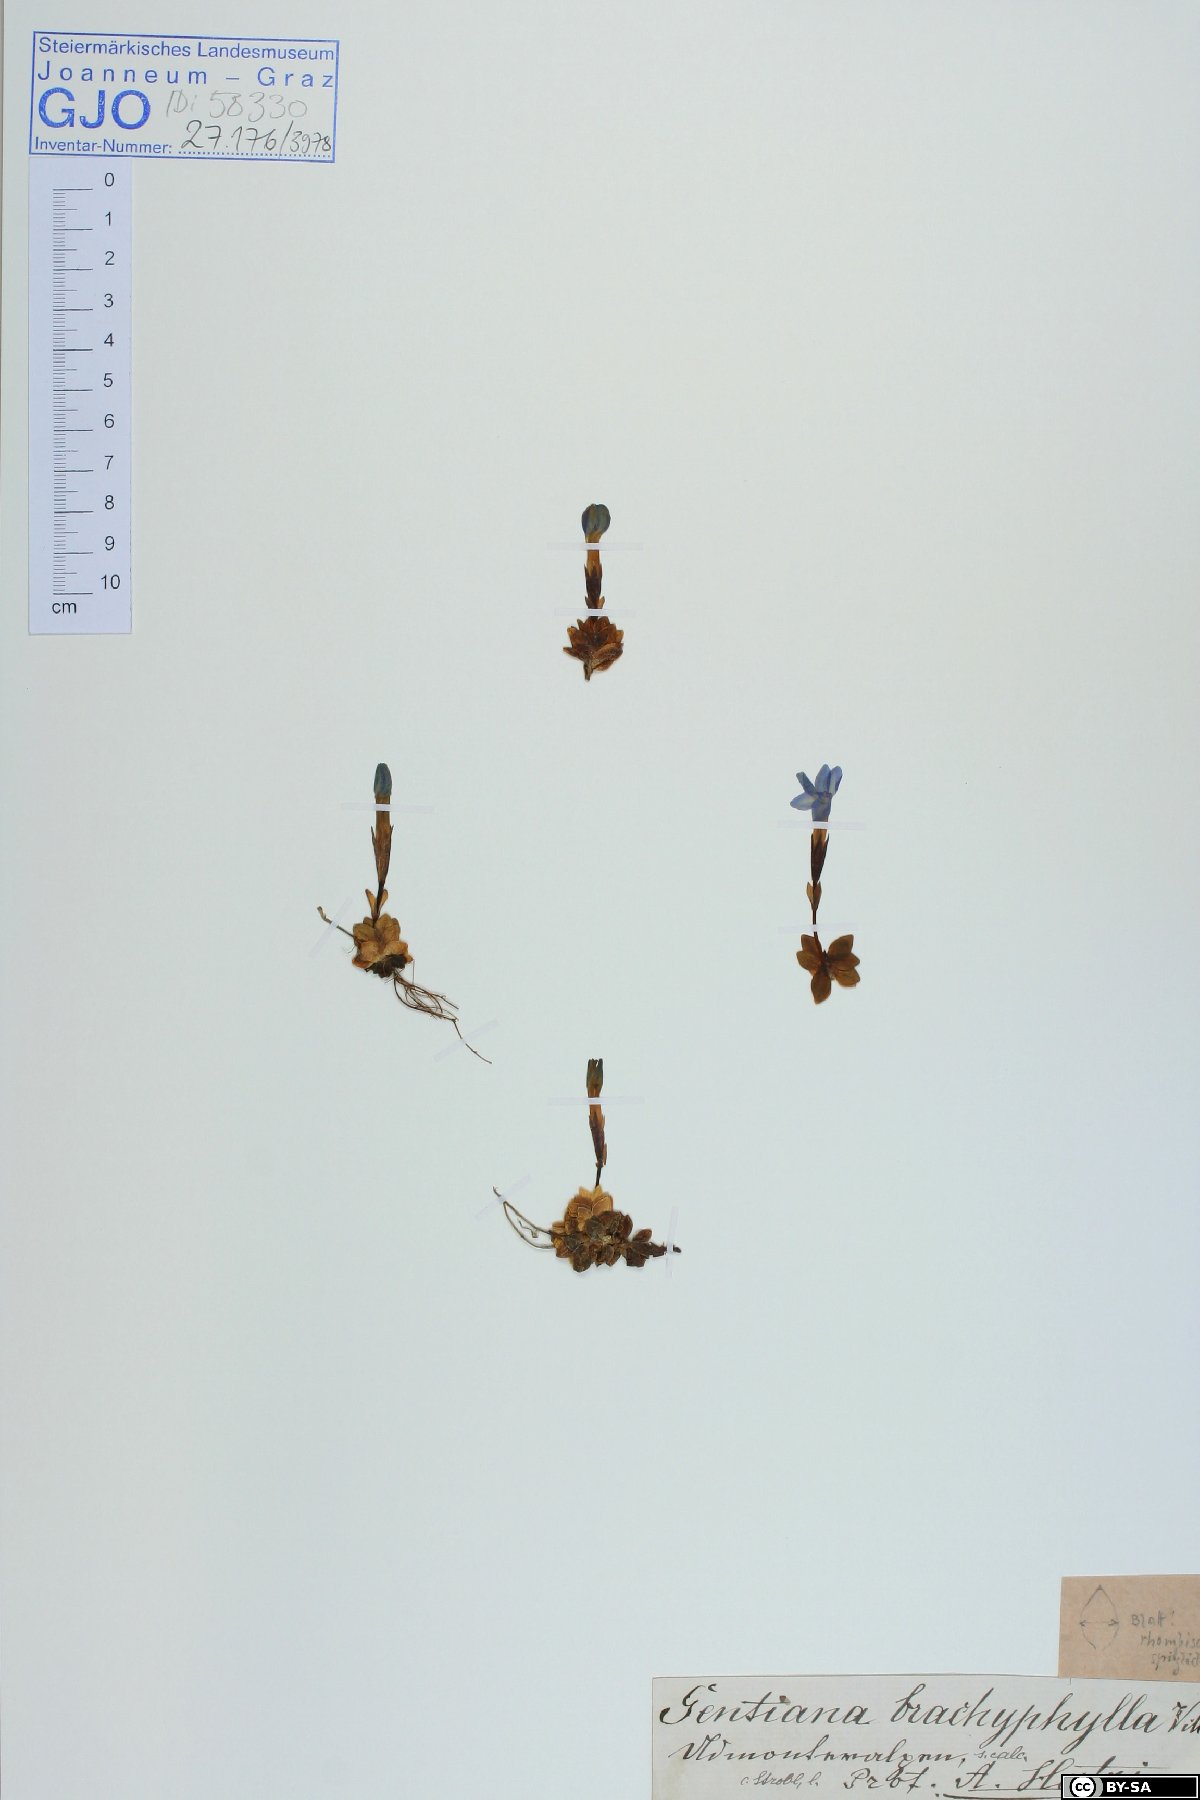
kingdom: Plantae
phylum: Tracheophyta
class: Magnoliopsida
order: Gentianales
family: Gentianaceae
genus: Gentiana
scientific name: Gentiana brachyphylla
